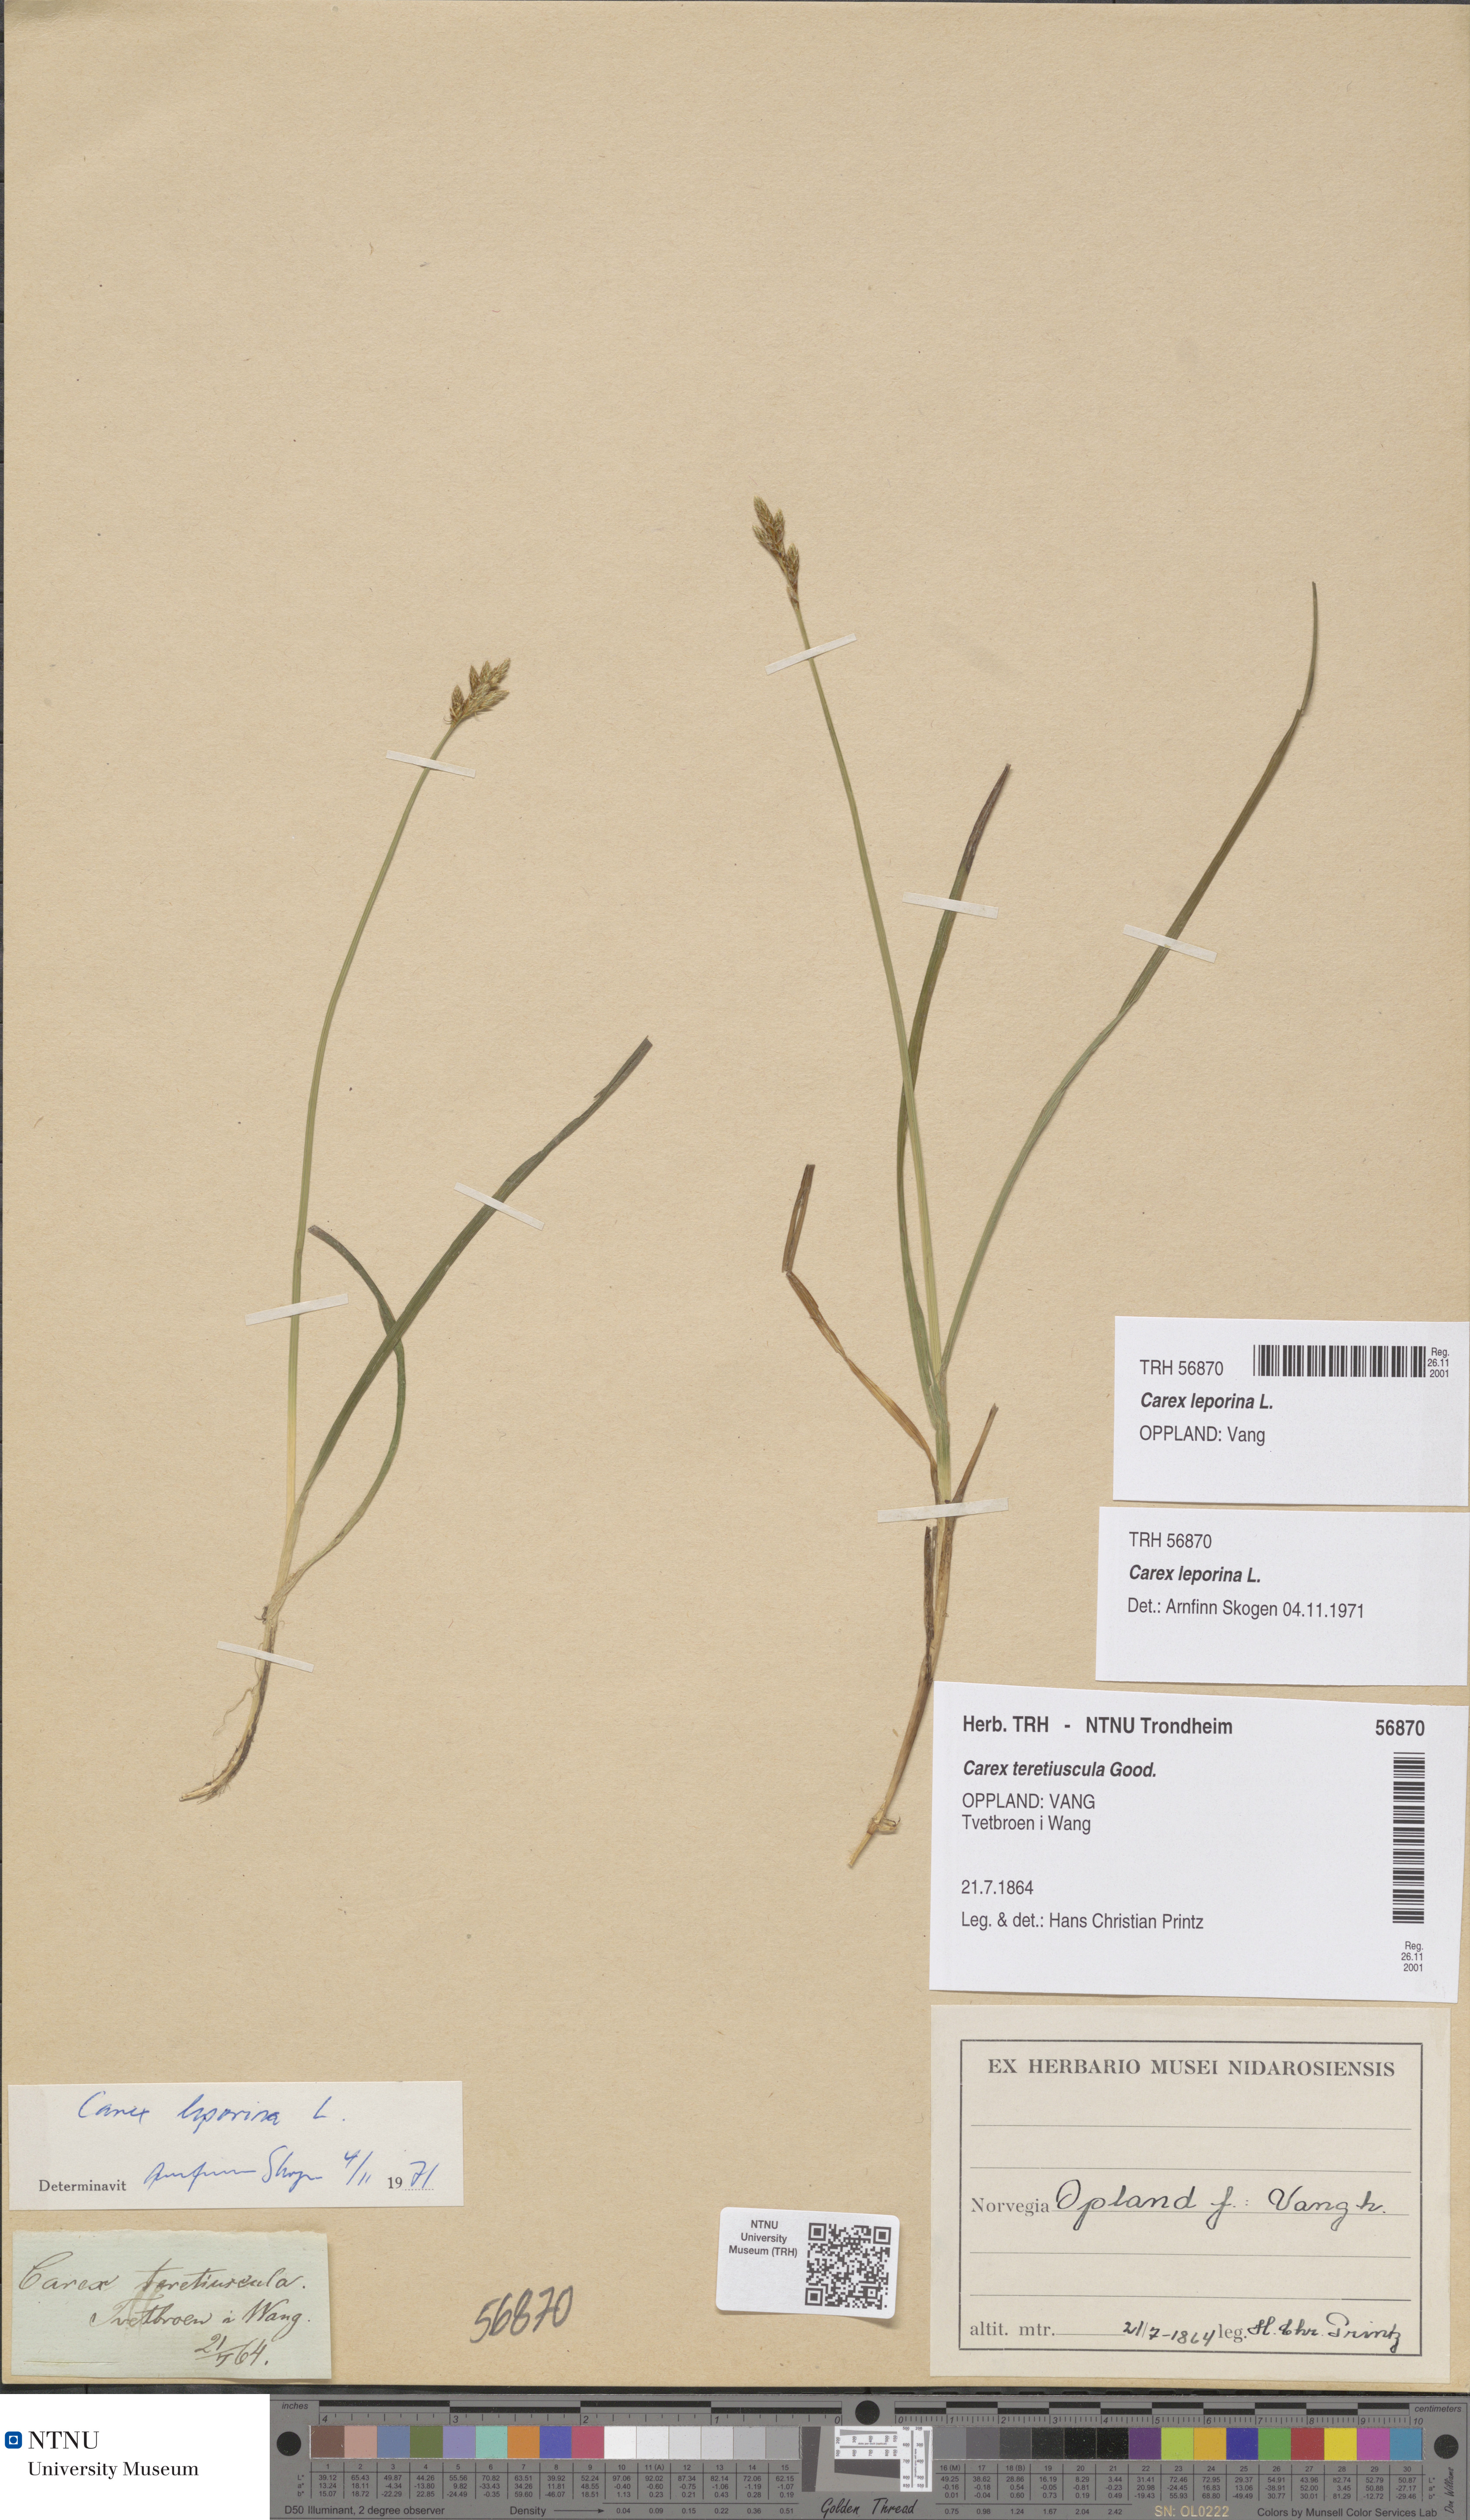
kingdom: Plantae
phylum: Tracheophyta
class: Liliopsida
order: Poales
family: Cyperaceae
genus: Carex
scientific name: Carex leporina
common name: Oval sedge
